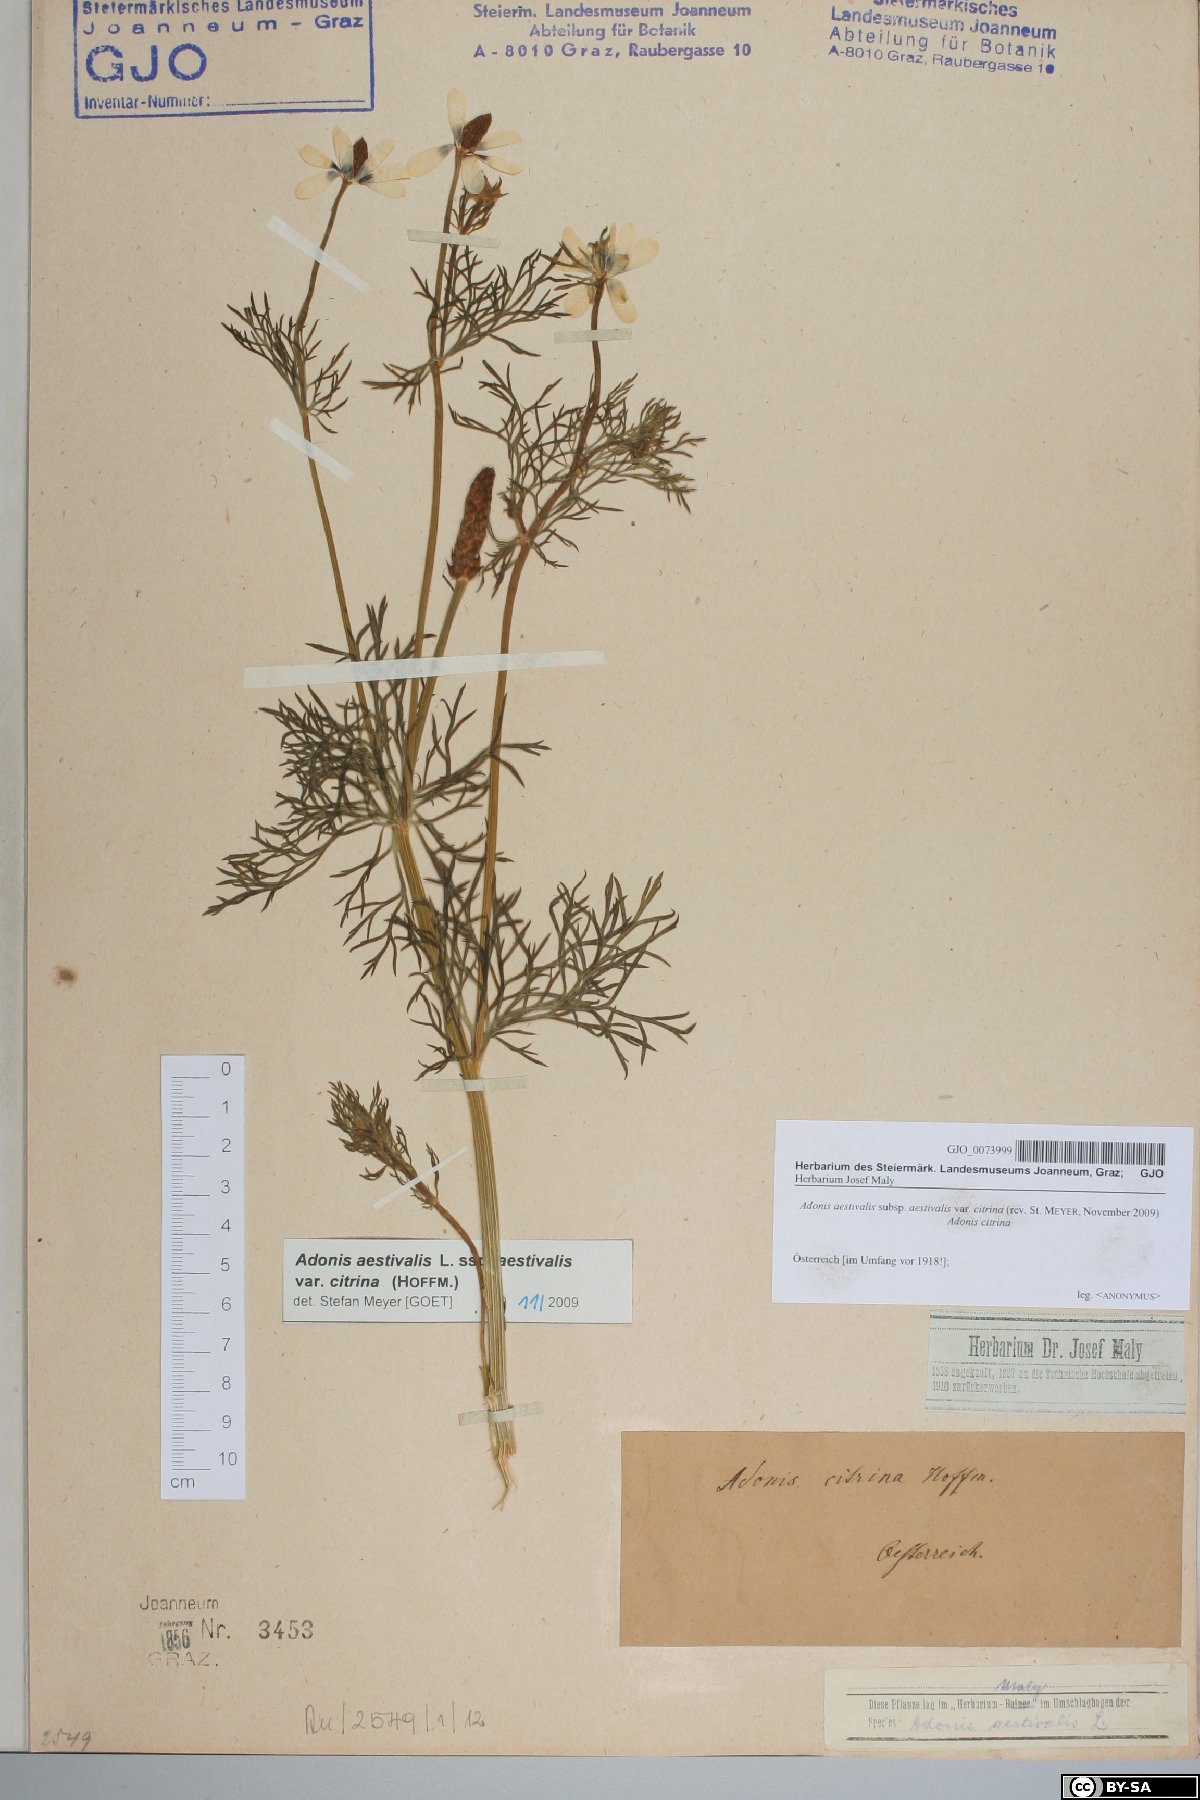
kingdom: Plantae
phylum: Tracheophyta
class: Magnoliopsida
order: Ranunculales
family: Ranunculaceae
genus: Adonis
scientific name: Adonis aestivalis
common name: Summer pheasant's-eye
